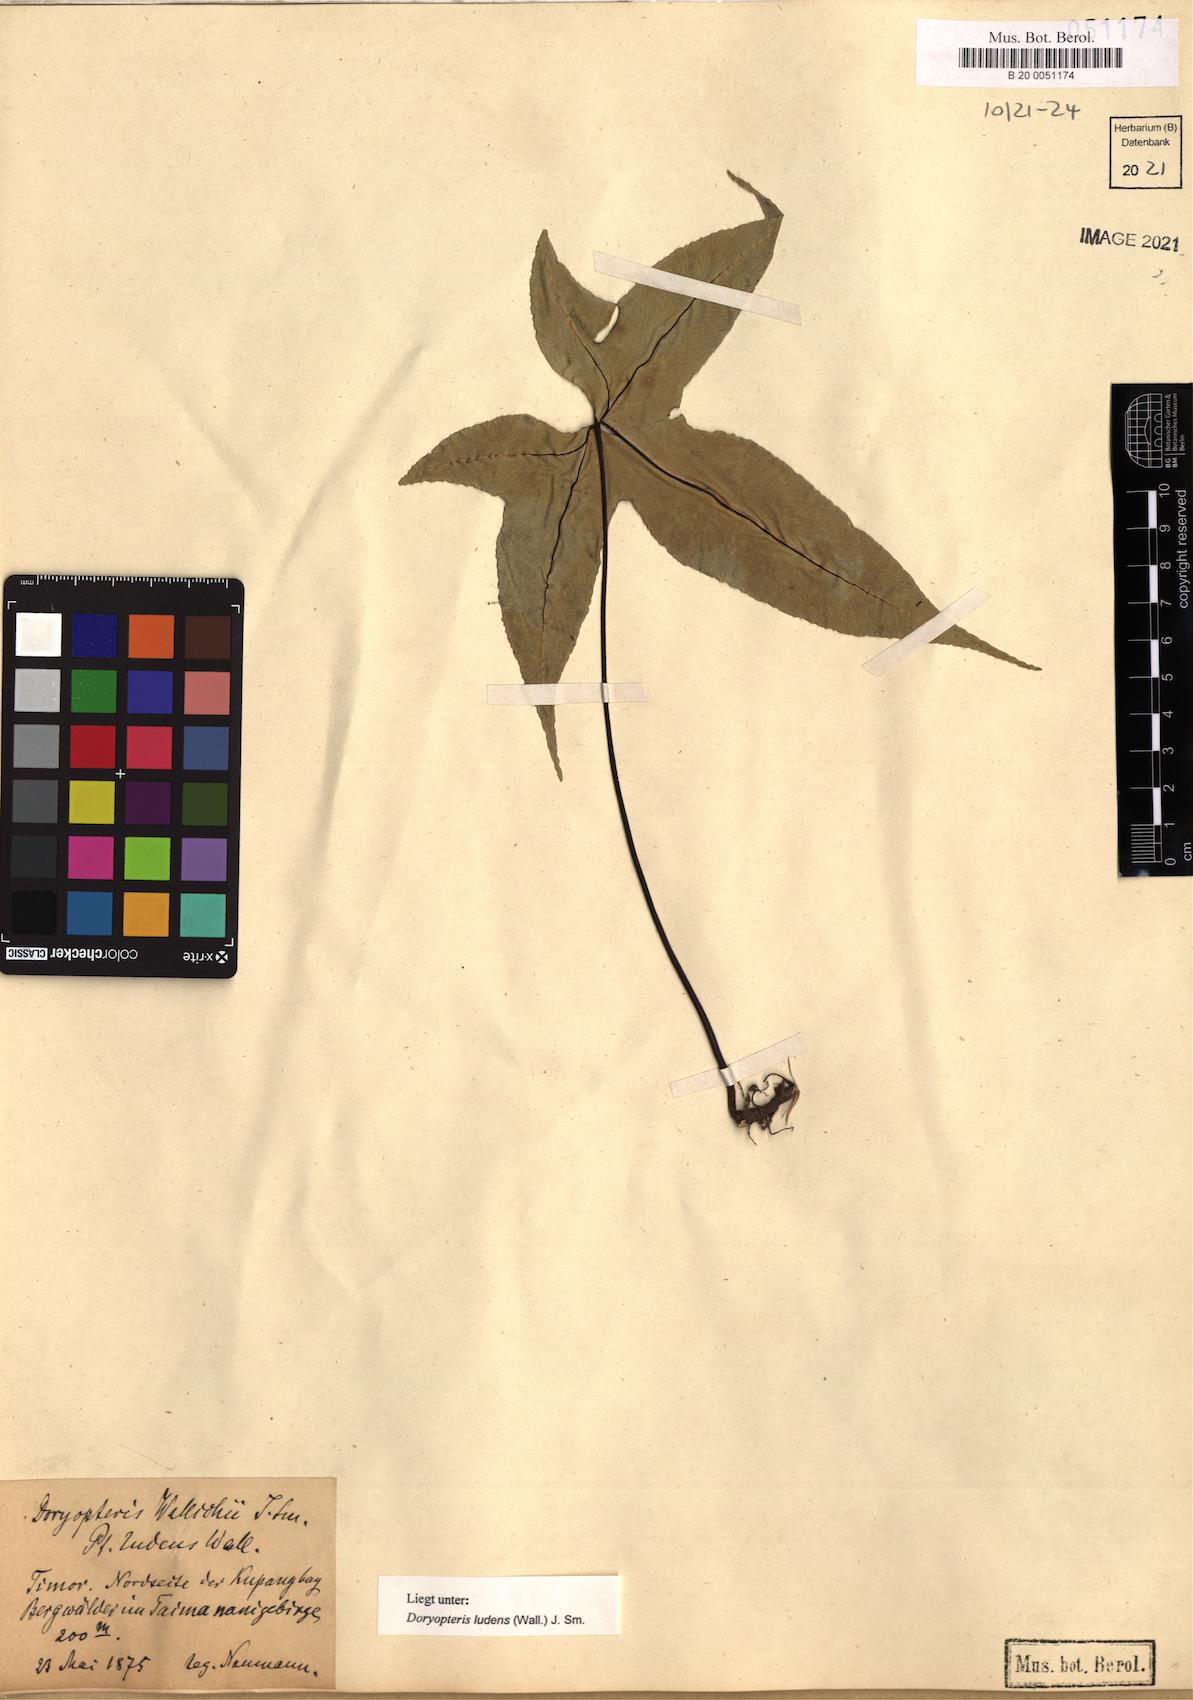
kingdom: Plantae
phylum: Tracheophyta
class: Polypodiopsida
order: Polypodiales
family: Pteridaceae
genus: Calciphilopteris
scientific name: Calciphilopteris ludens
